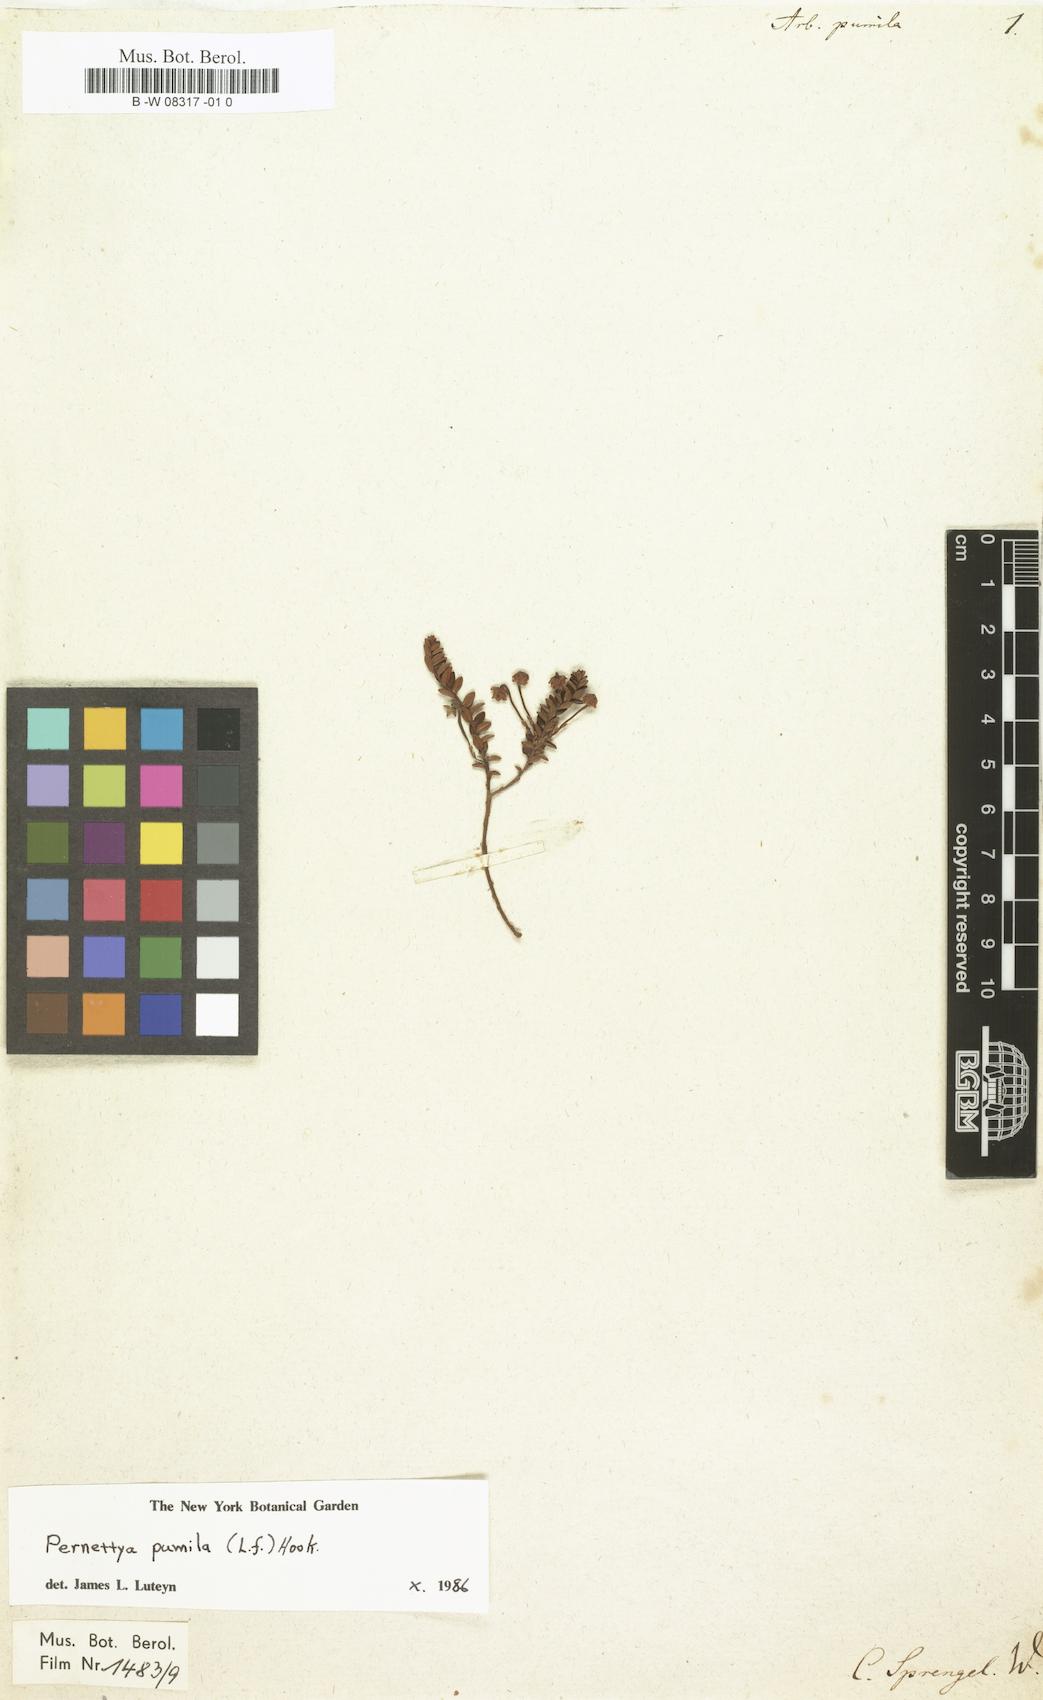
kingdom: Plantae
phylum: Tracheophyta
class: Magnoliopsida
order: Ericales
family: Ericaceae
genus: Gaultheria
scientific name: Gaultheria pumila
